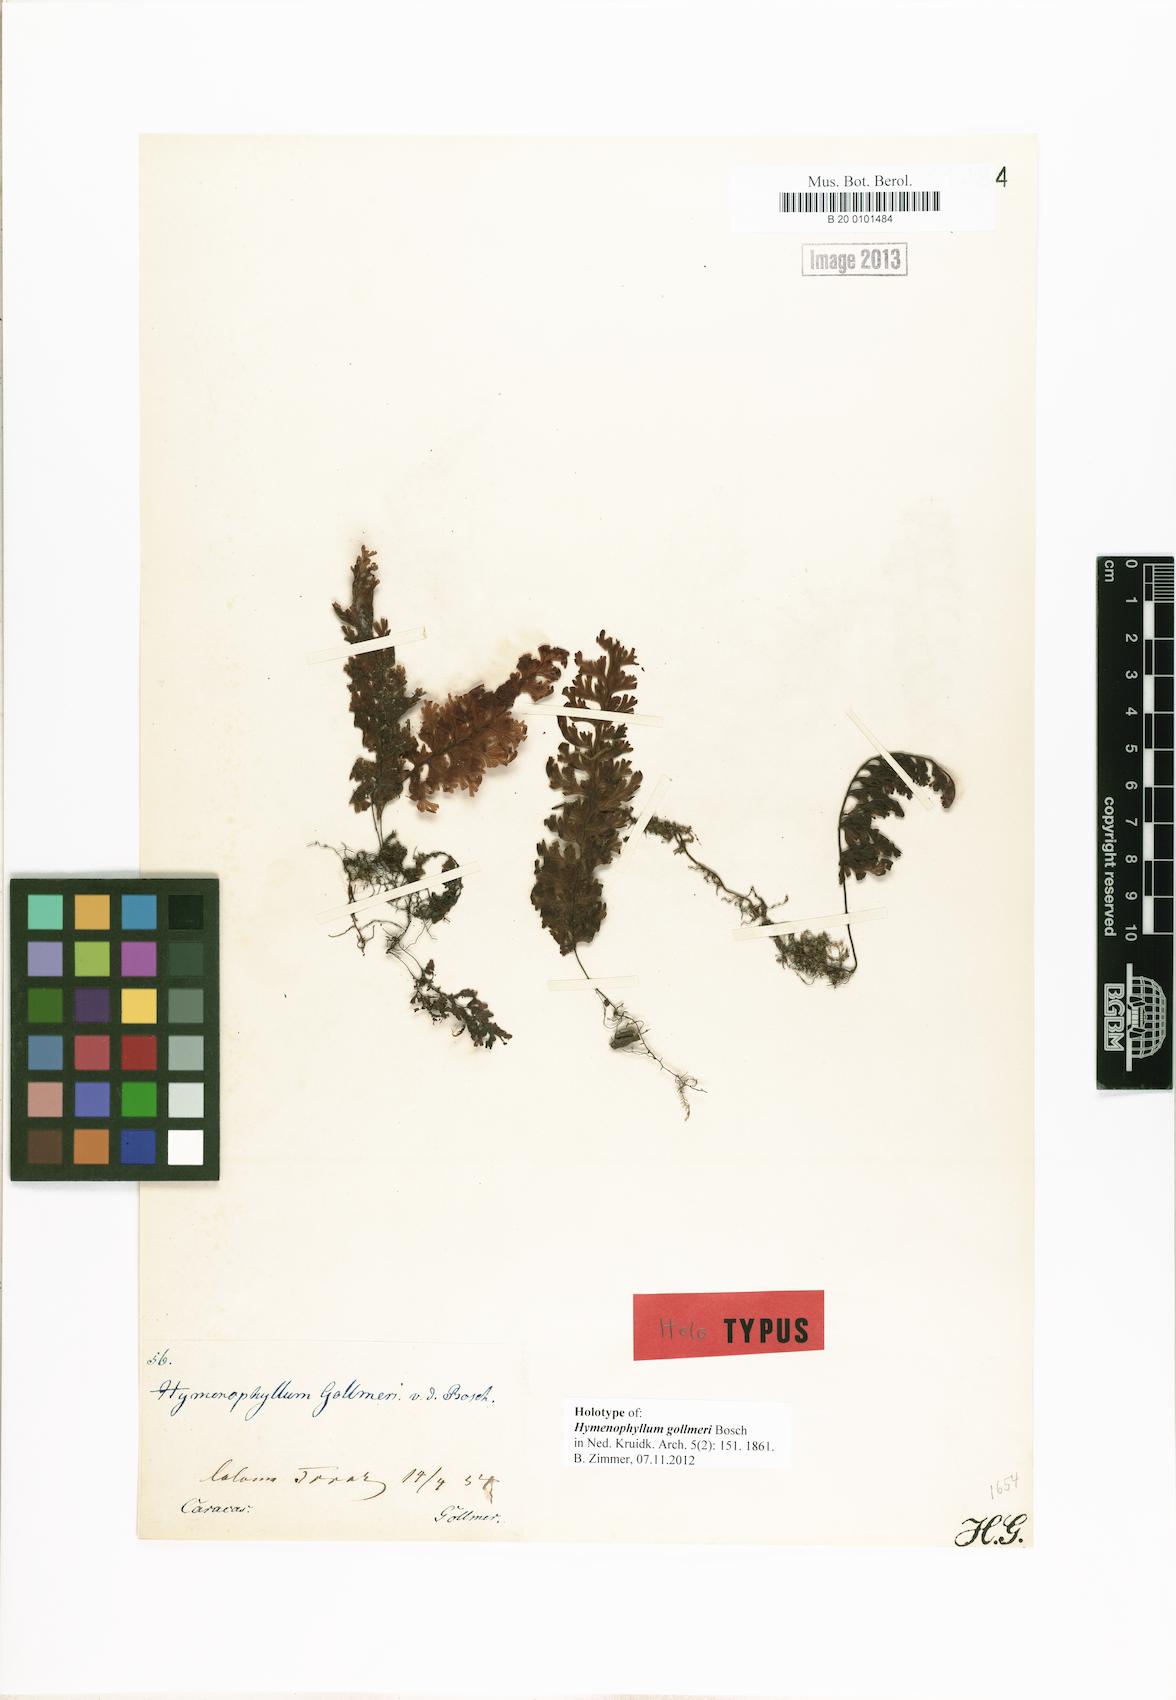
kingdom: Plantae
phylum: Tracheophyta
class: Polypodiopsida
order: Hymenophyllales
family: Hymenophyllaceae
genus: Hymenophyllum
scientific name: Hymenophyllum apiculatum
